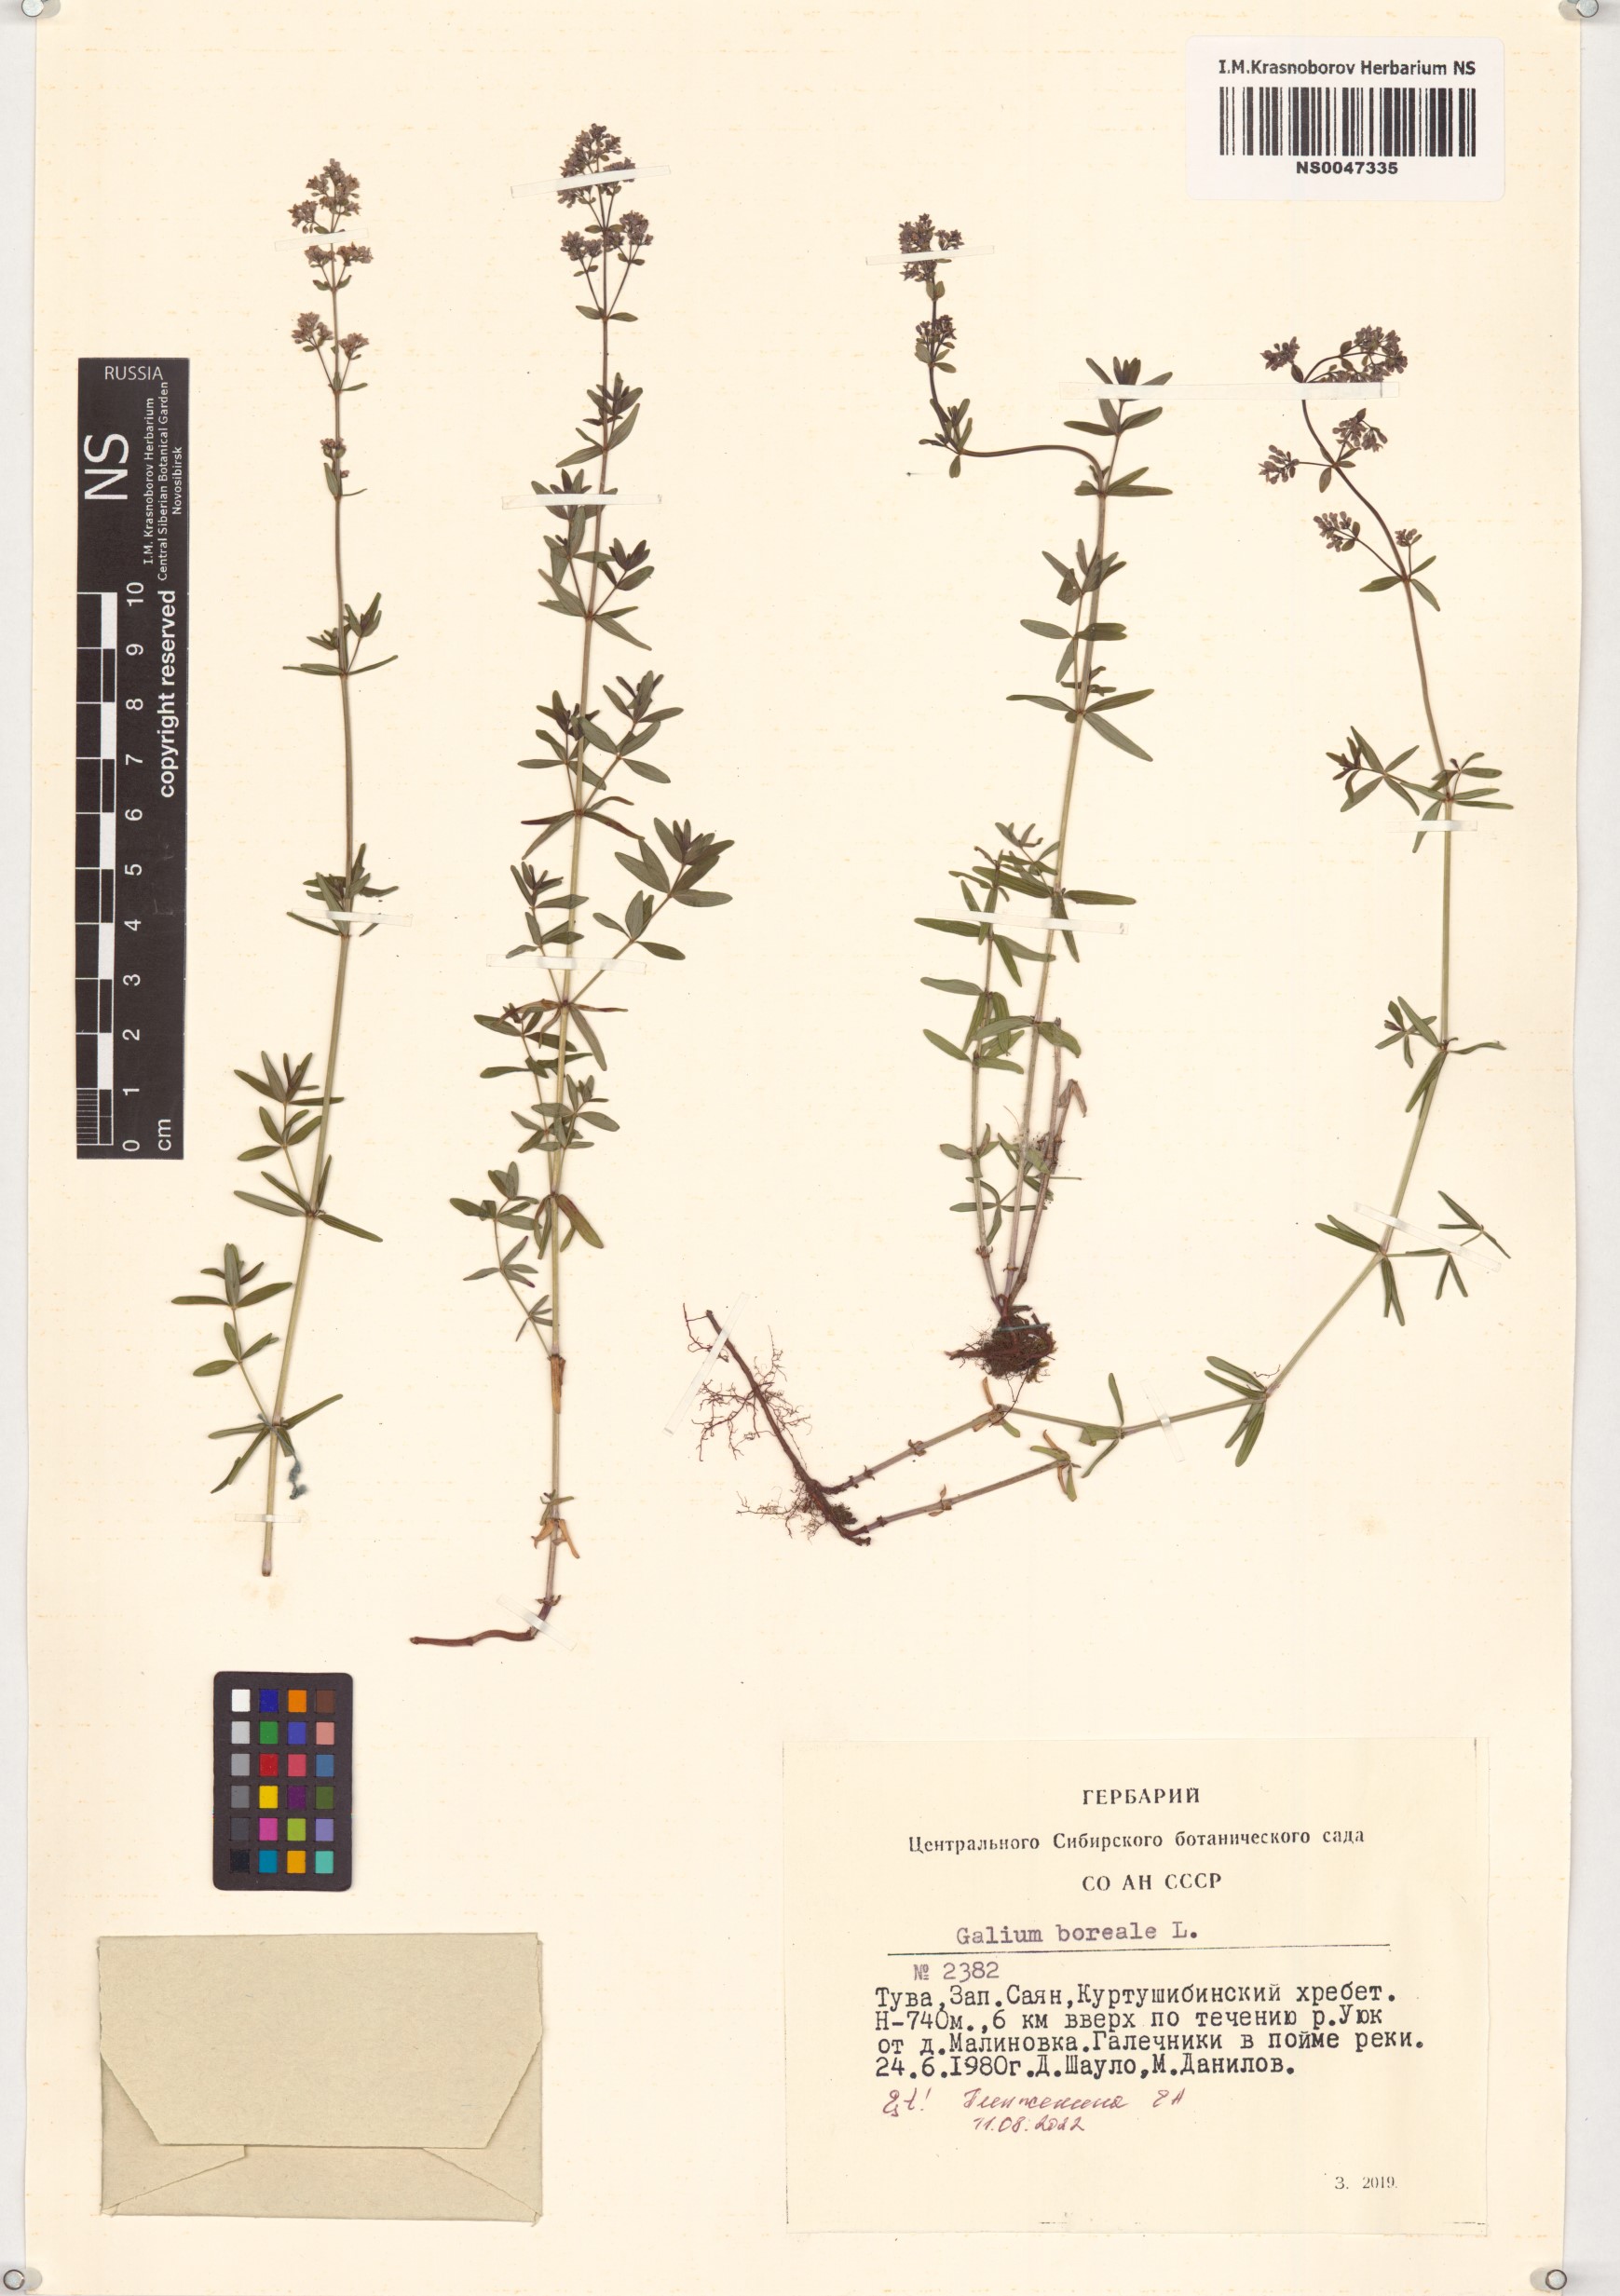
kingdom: Plantae
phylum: Tracheophyta
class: Magnoliopsida
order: Gentianales
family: Rubiaceae
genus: Galium
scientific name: Galium boreale
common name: Northern bedstraw
